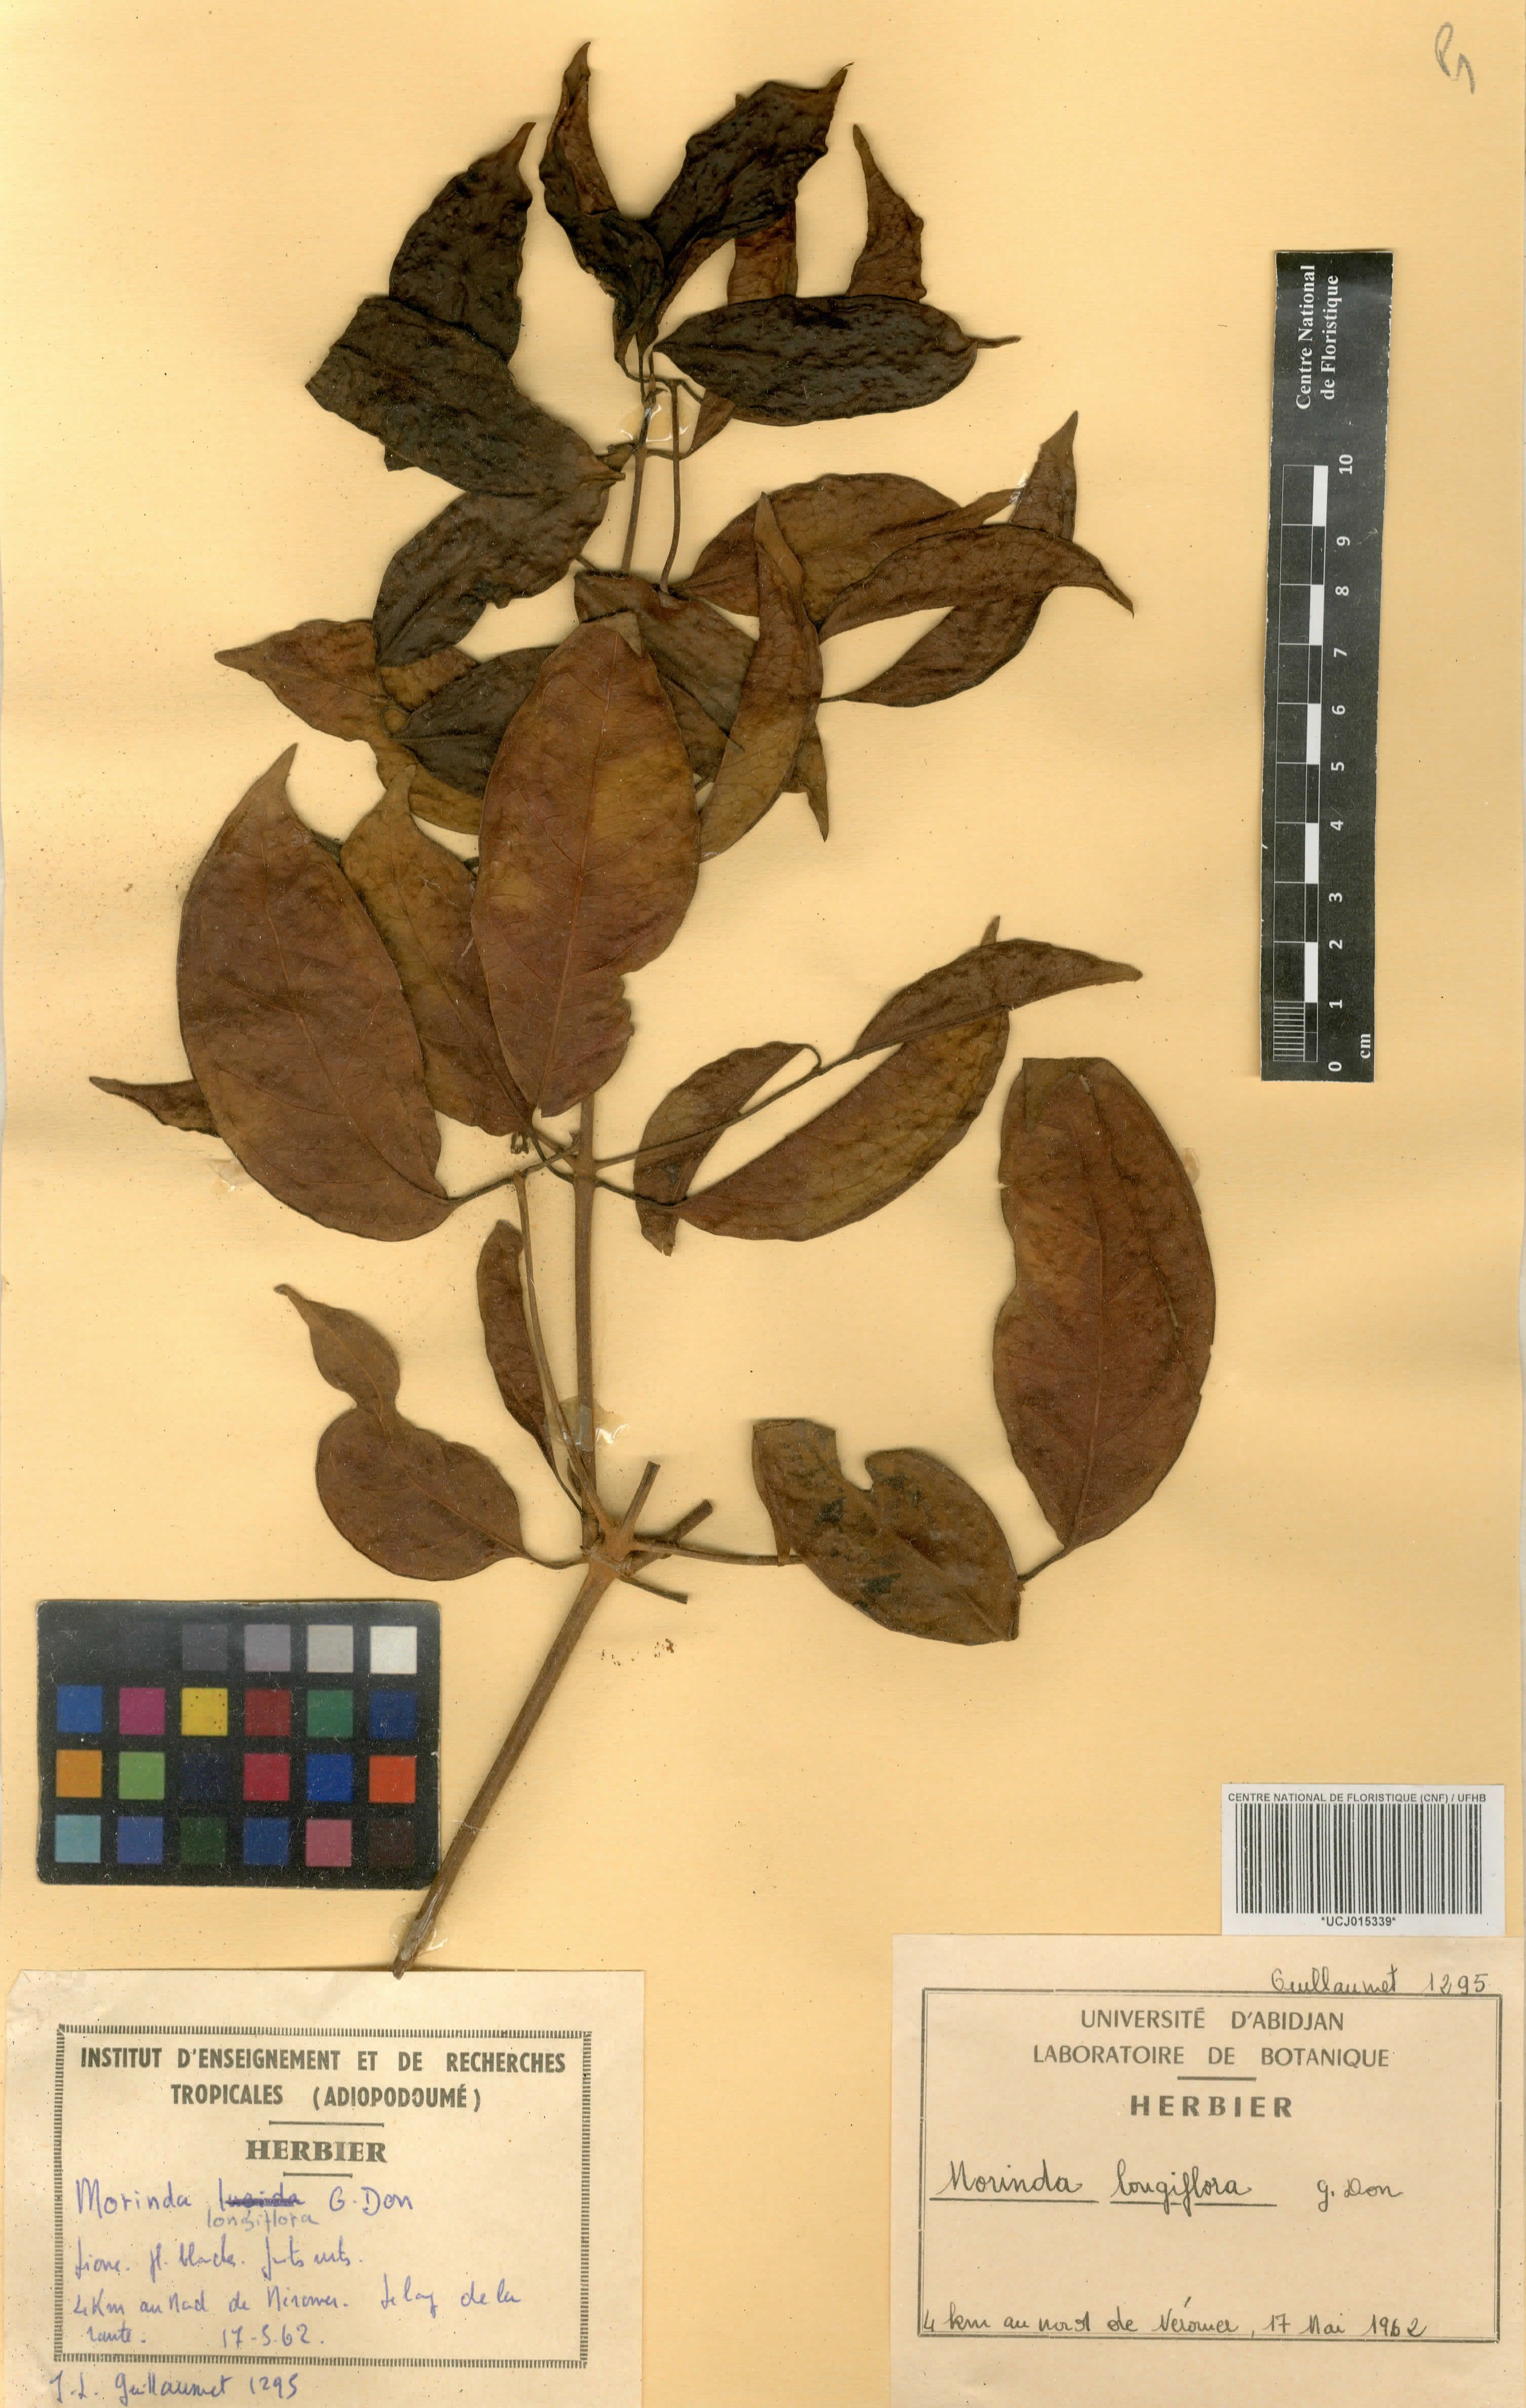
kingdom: Plantae
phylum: Tracheophyta
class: Magnoliopsida
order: Gentianales
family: Rubiaceae
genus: Morinda
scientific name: Morinda longiflora
